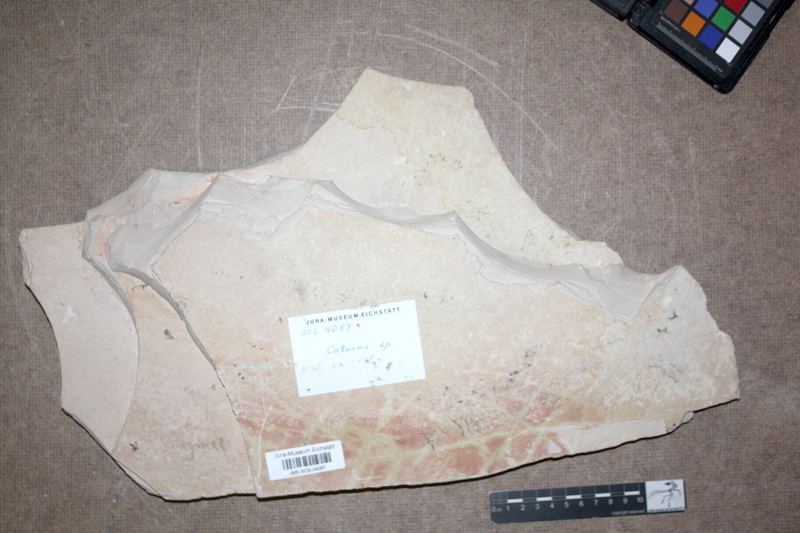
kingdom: Animalia
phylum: Chordata
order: Amiiformes
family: Caturidae
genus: Caturus
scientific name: Caturus
